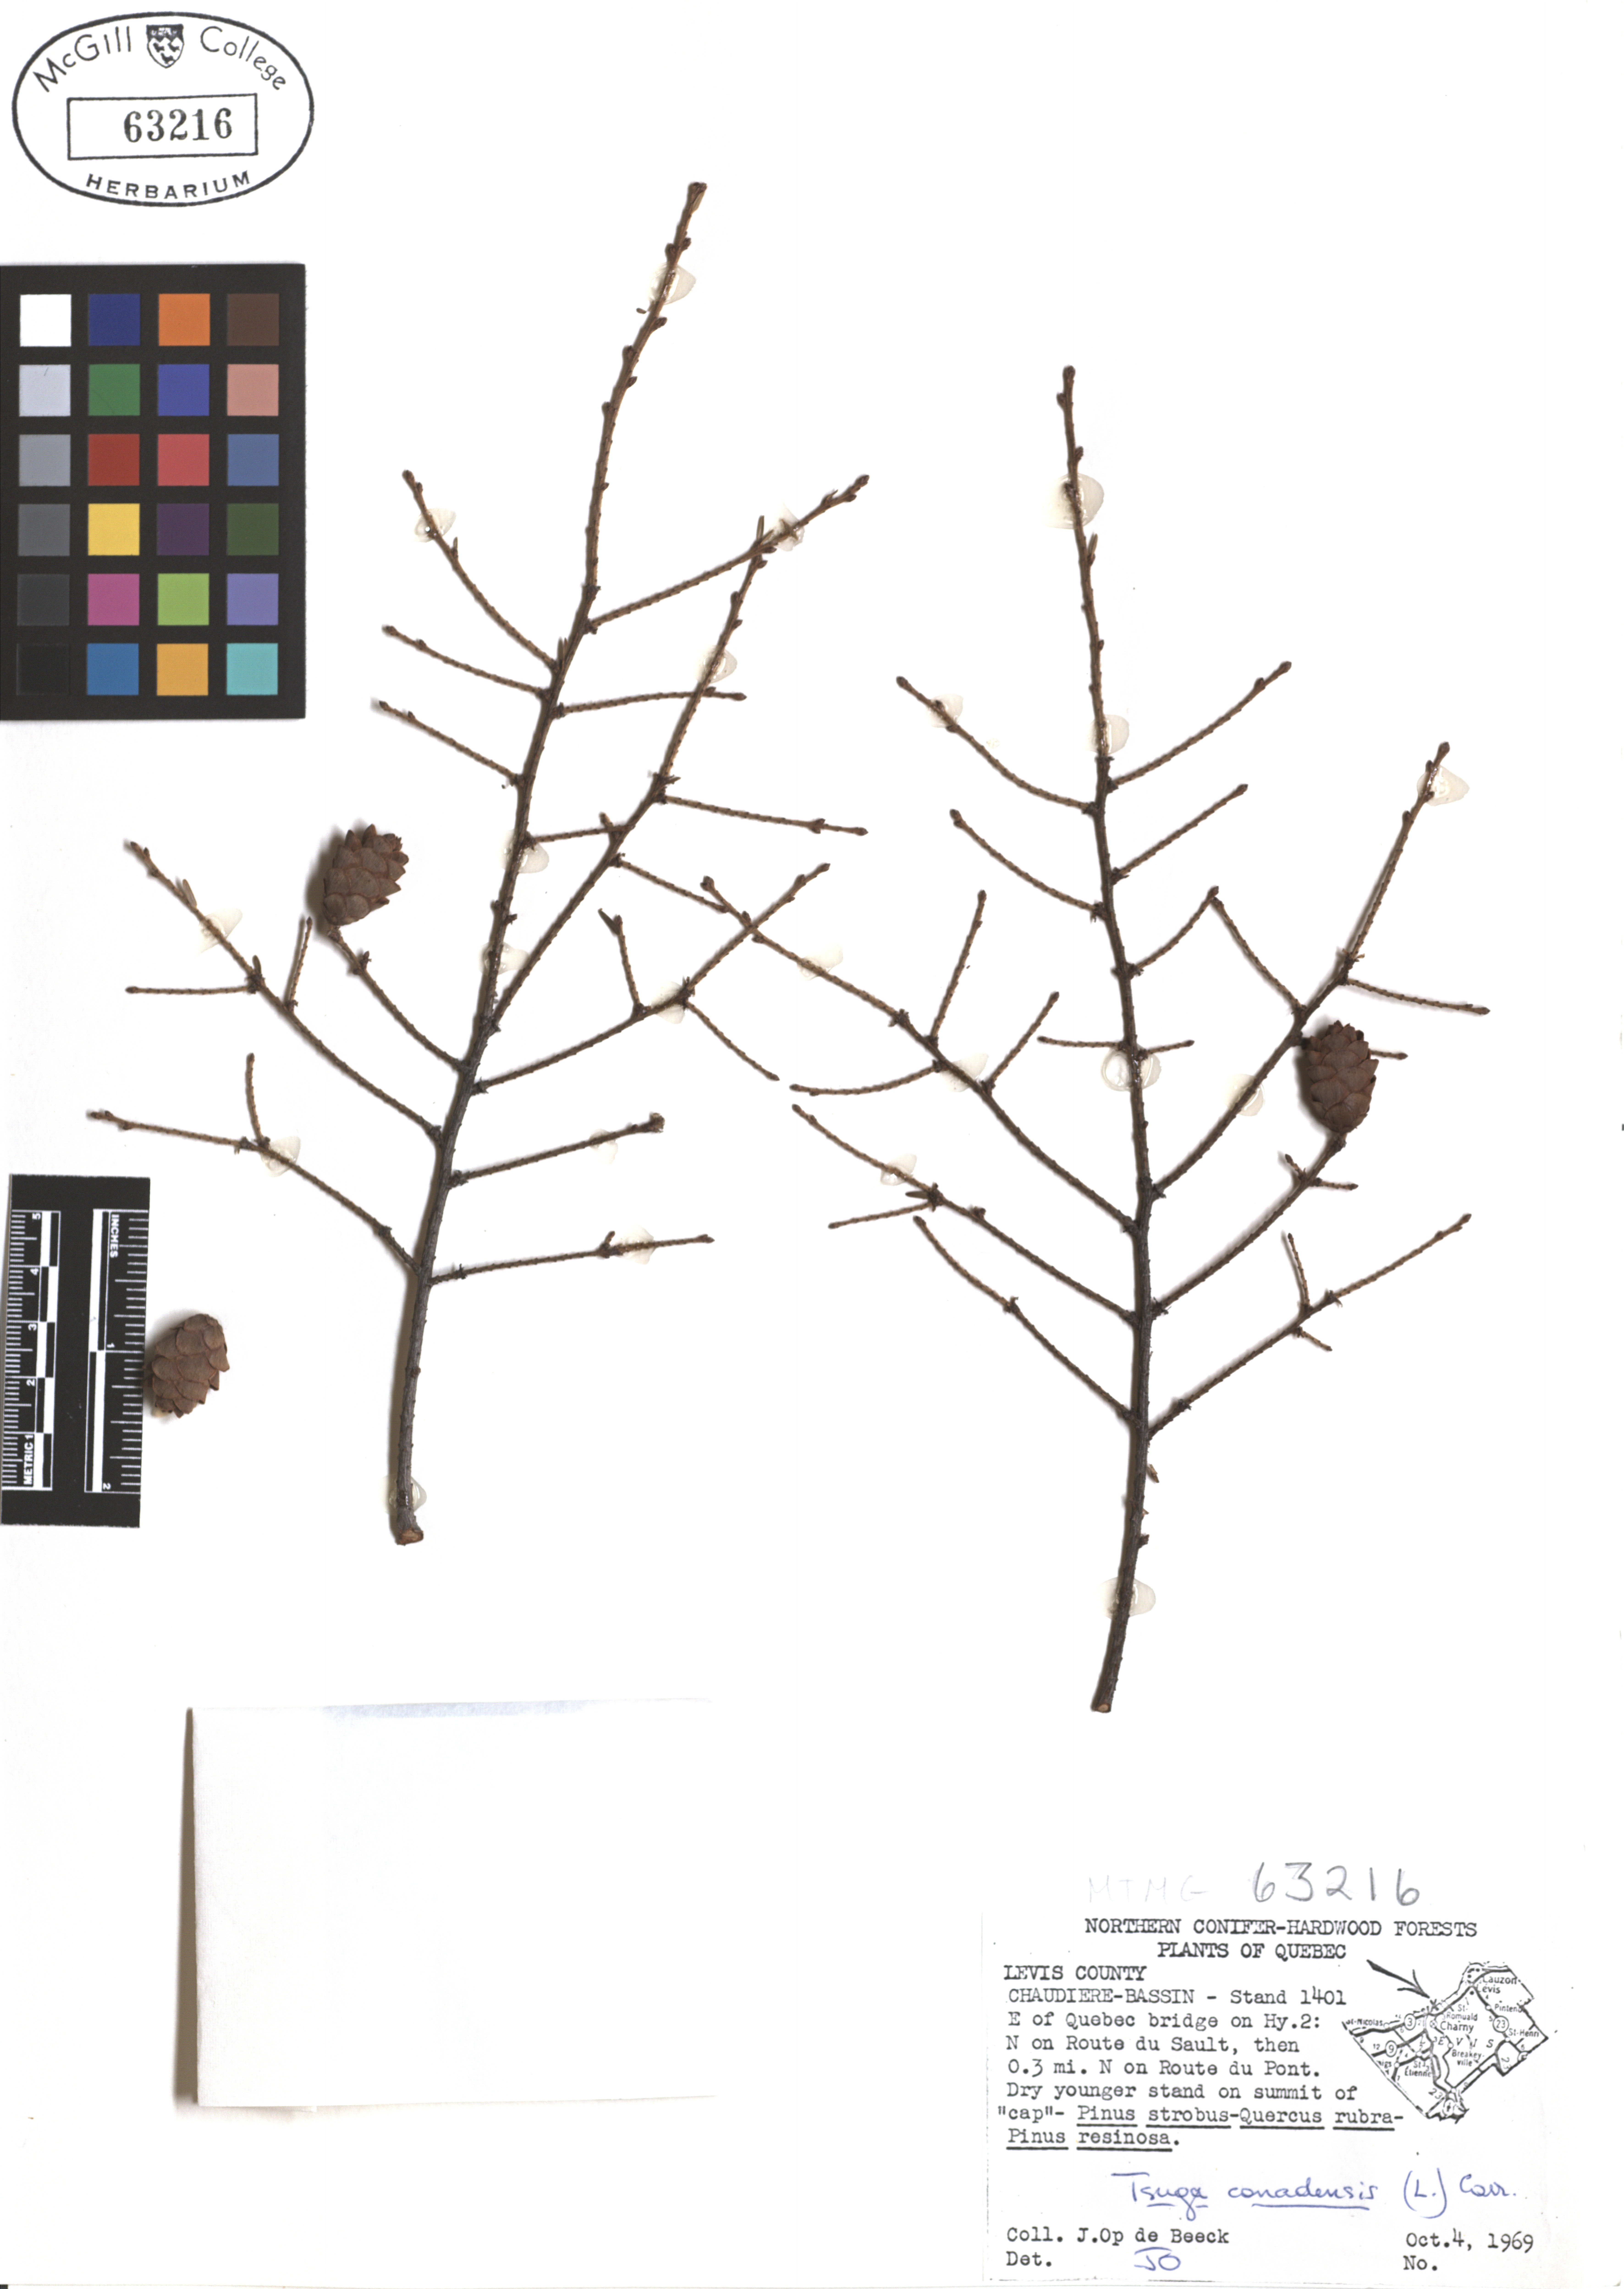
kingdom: Plantae
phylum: Tracheophyta
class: Pinopsida
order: Pinales
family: Pinaceae
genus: Tsuga
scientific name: Tsuga canadensis
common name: Eastern hemlock
